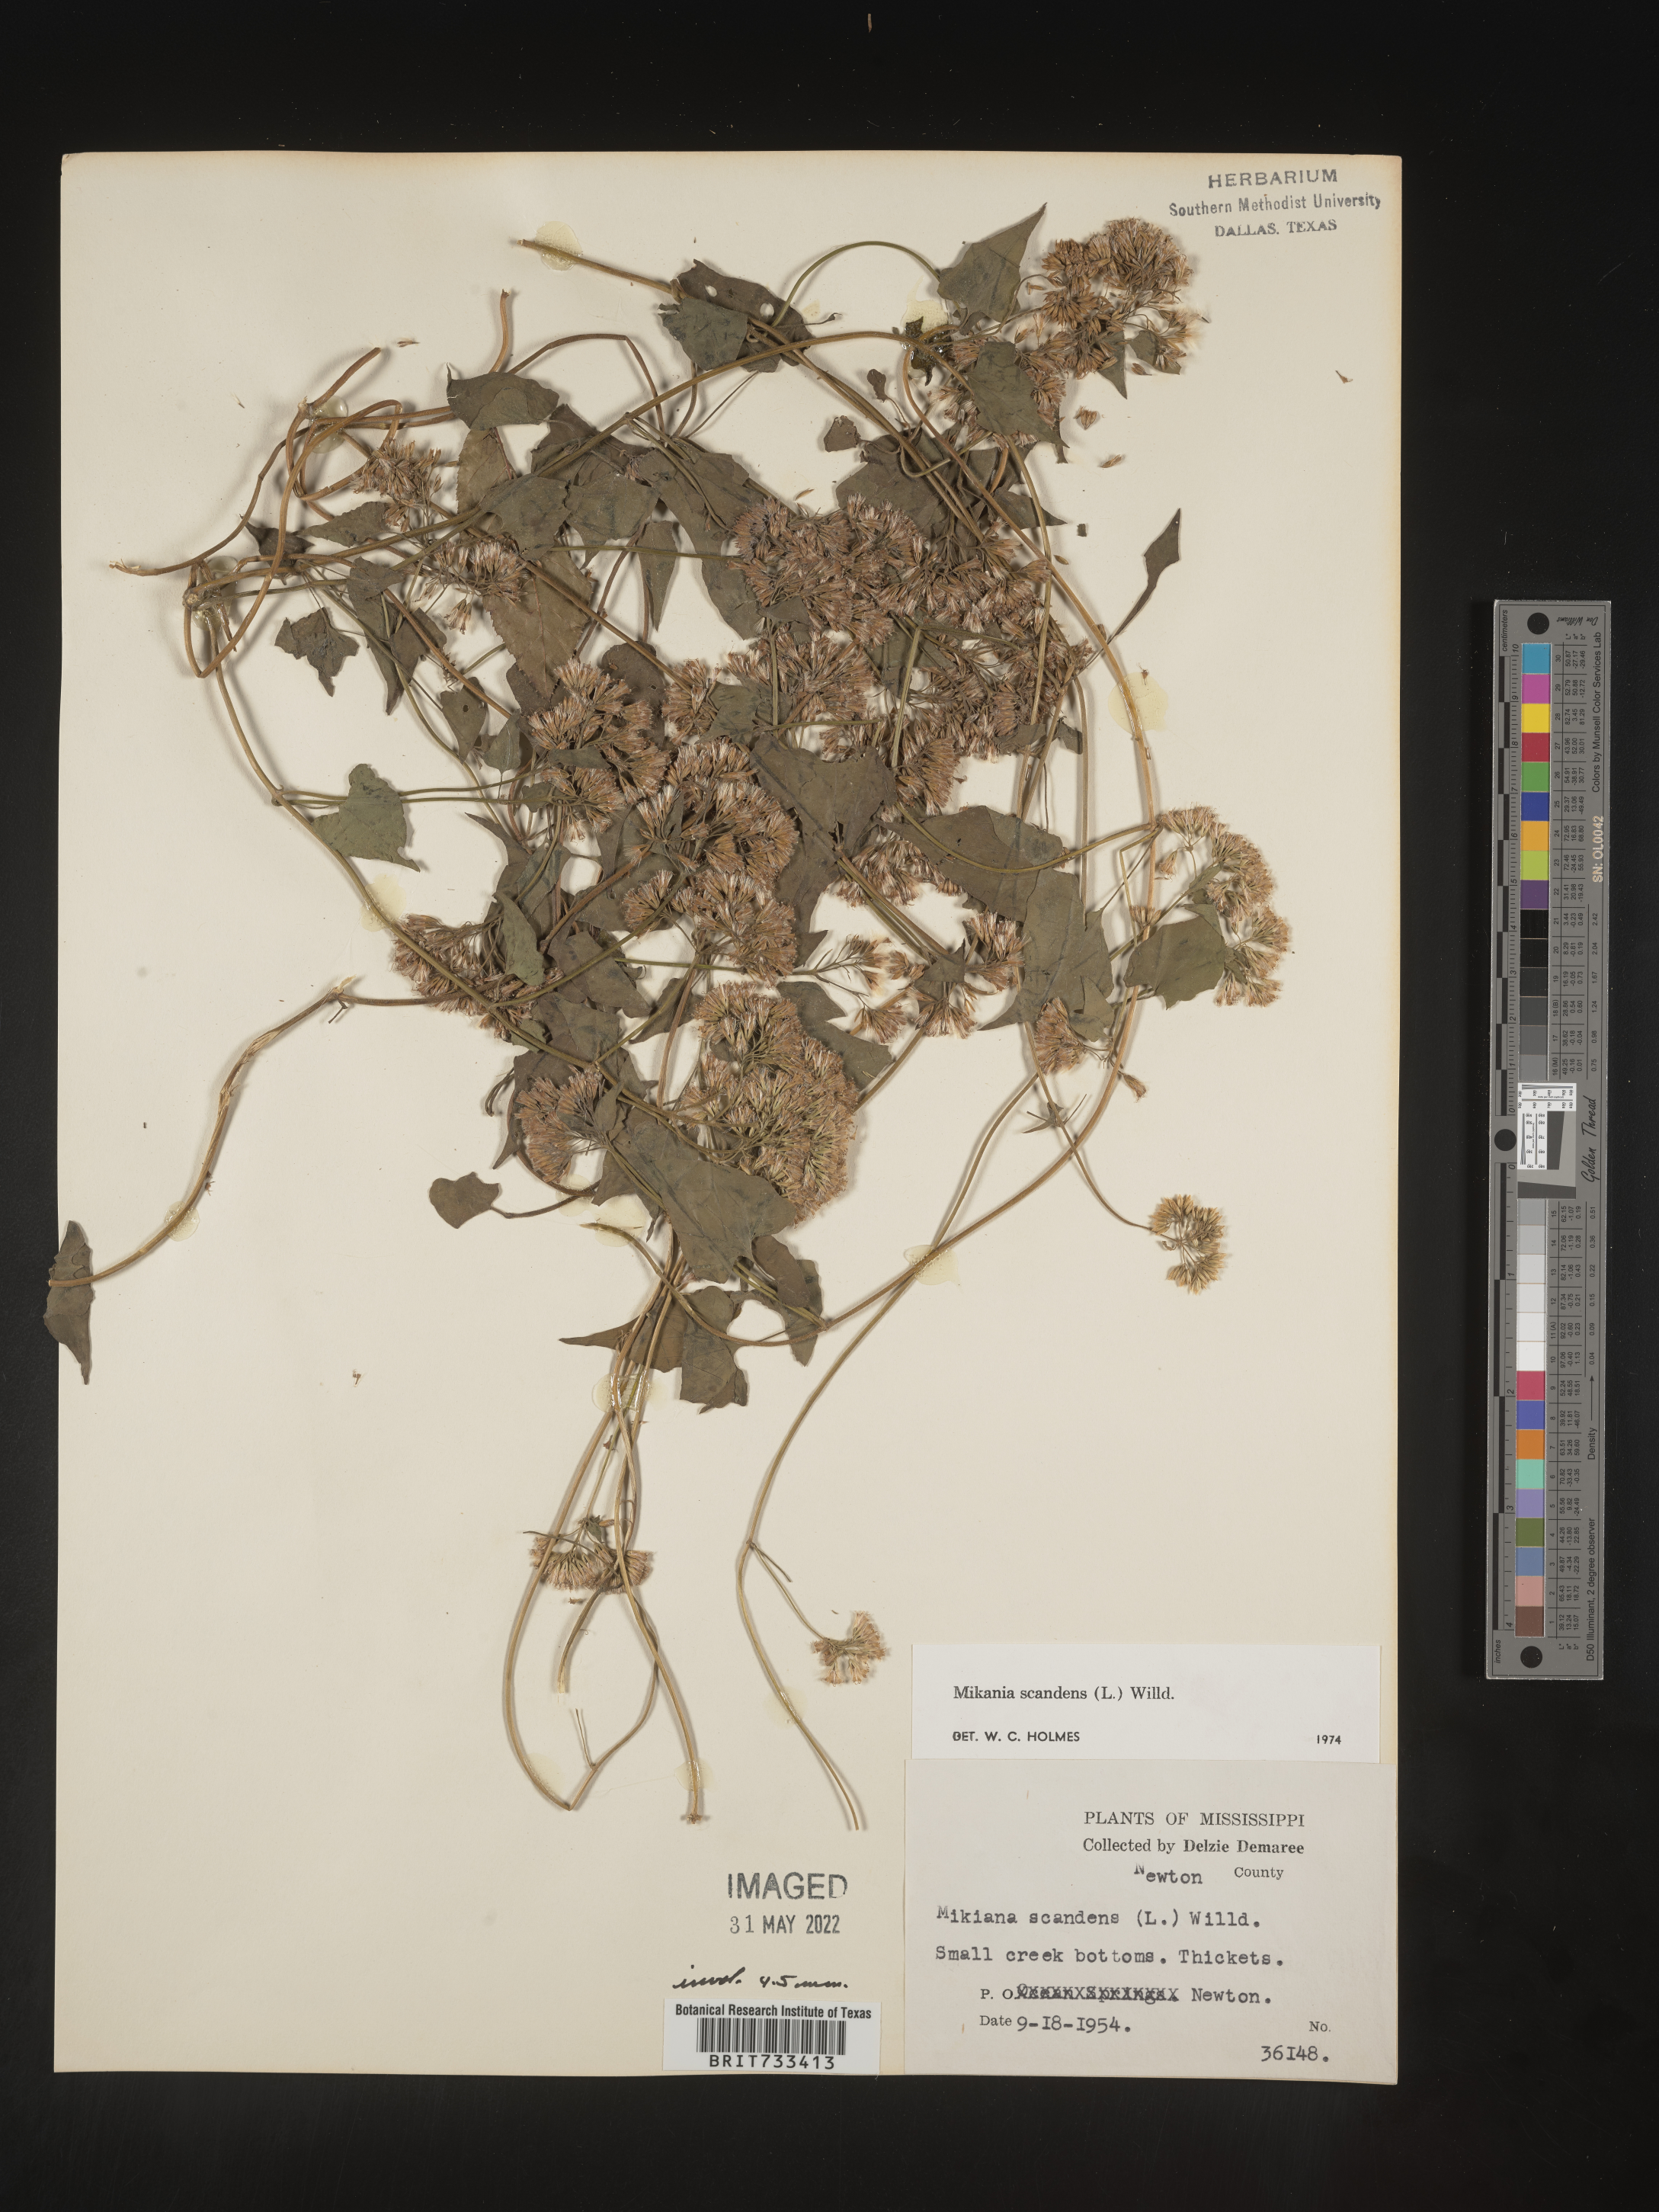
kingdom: Plantae
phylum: Tracheophyta
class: Magnoliopsida
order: Asterales
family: Asteraceae
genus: Mikania
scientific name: Mikania scandens
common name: Climbing hempvine
